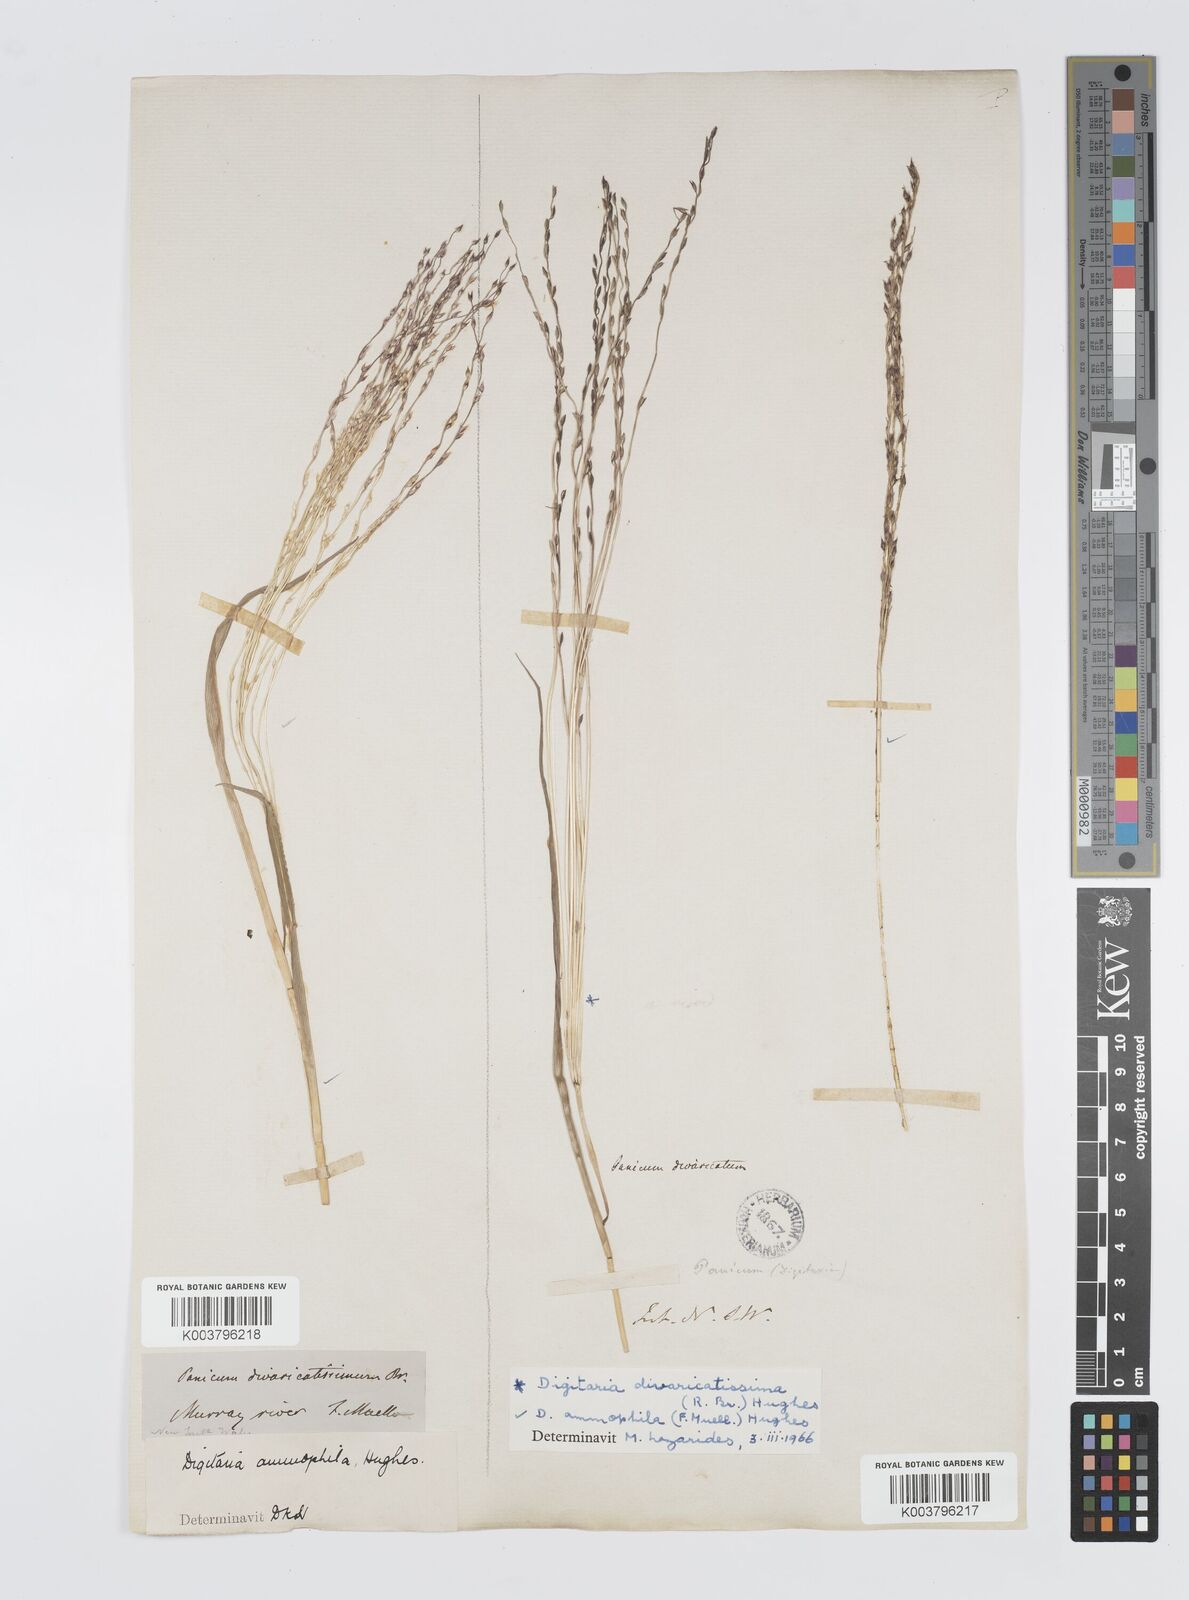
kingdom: Plantae
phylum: Tracheophyta
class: Liliopsida
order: Poales
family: Poaceae
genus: Digitaria
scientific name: Digitaria ammophila
